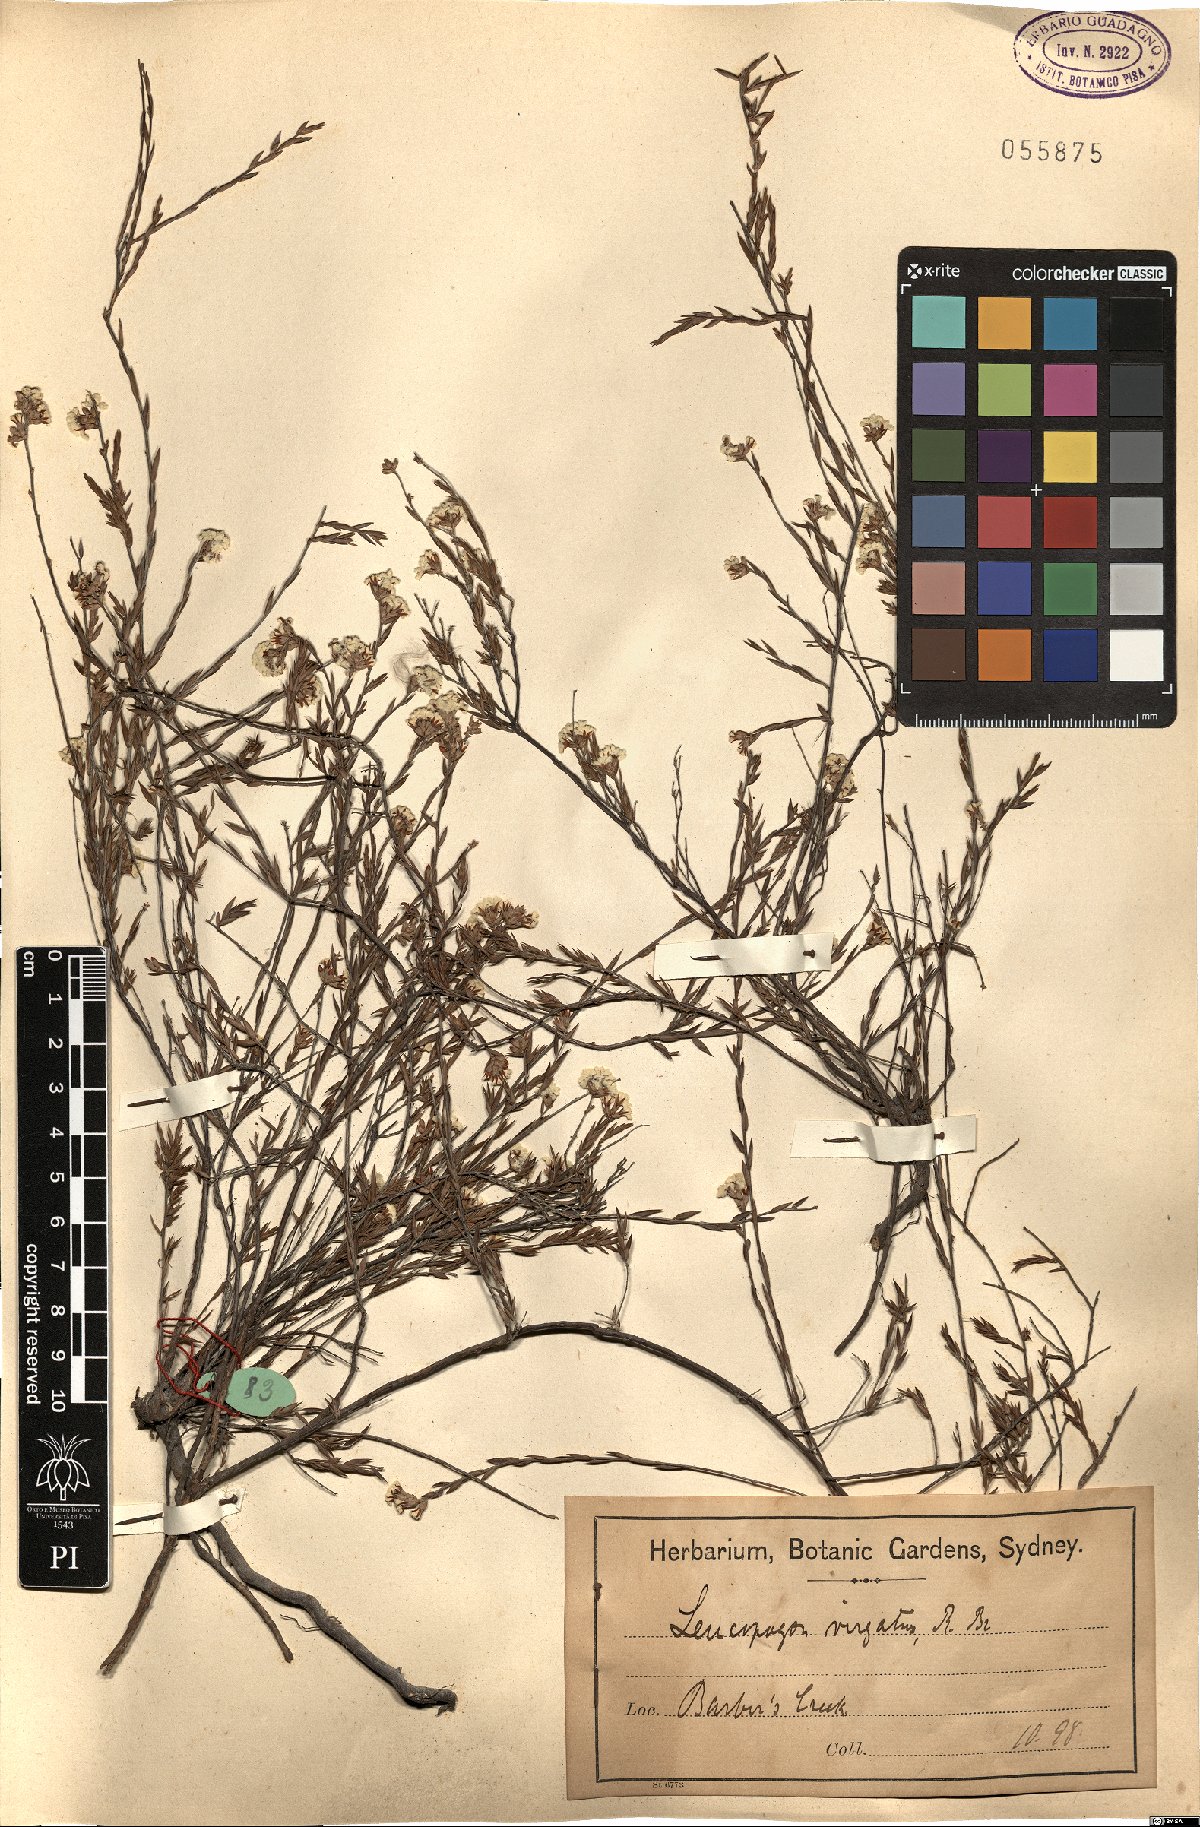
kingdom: Plantae
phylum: Tracheophyta
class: Magnoliopsida
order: Ericales
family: Ericaceae
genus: Leucopogon
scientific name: Leucopogon virgatus
